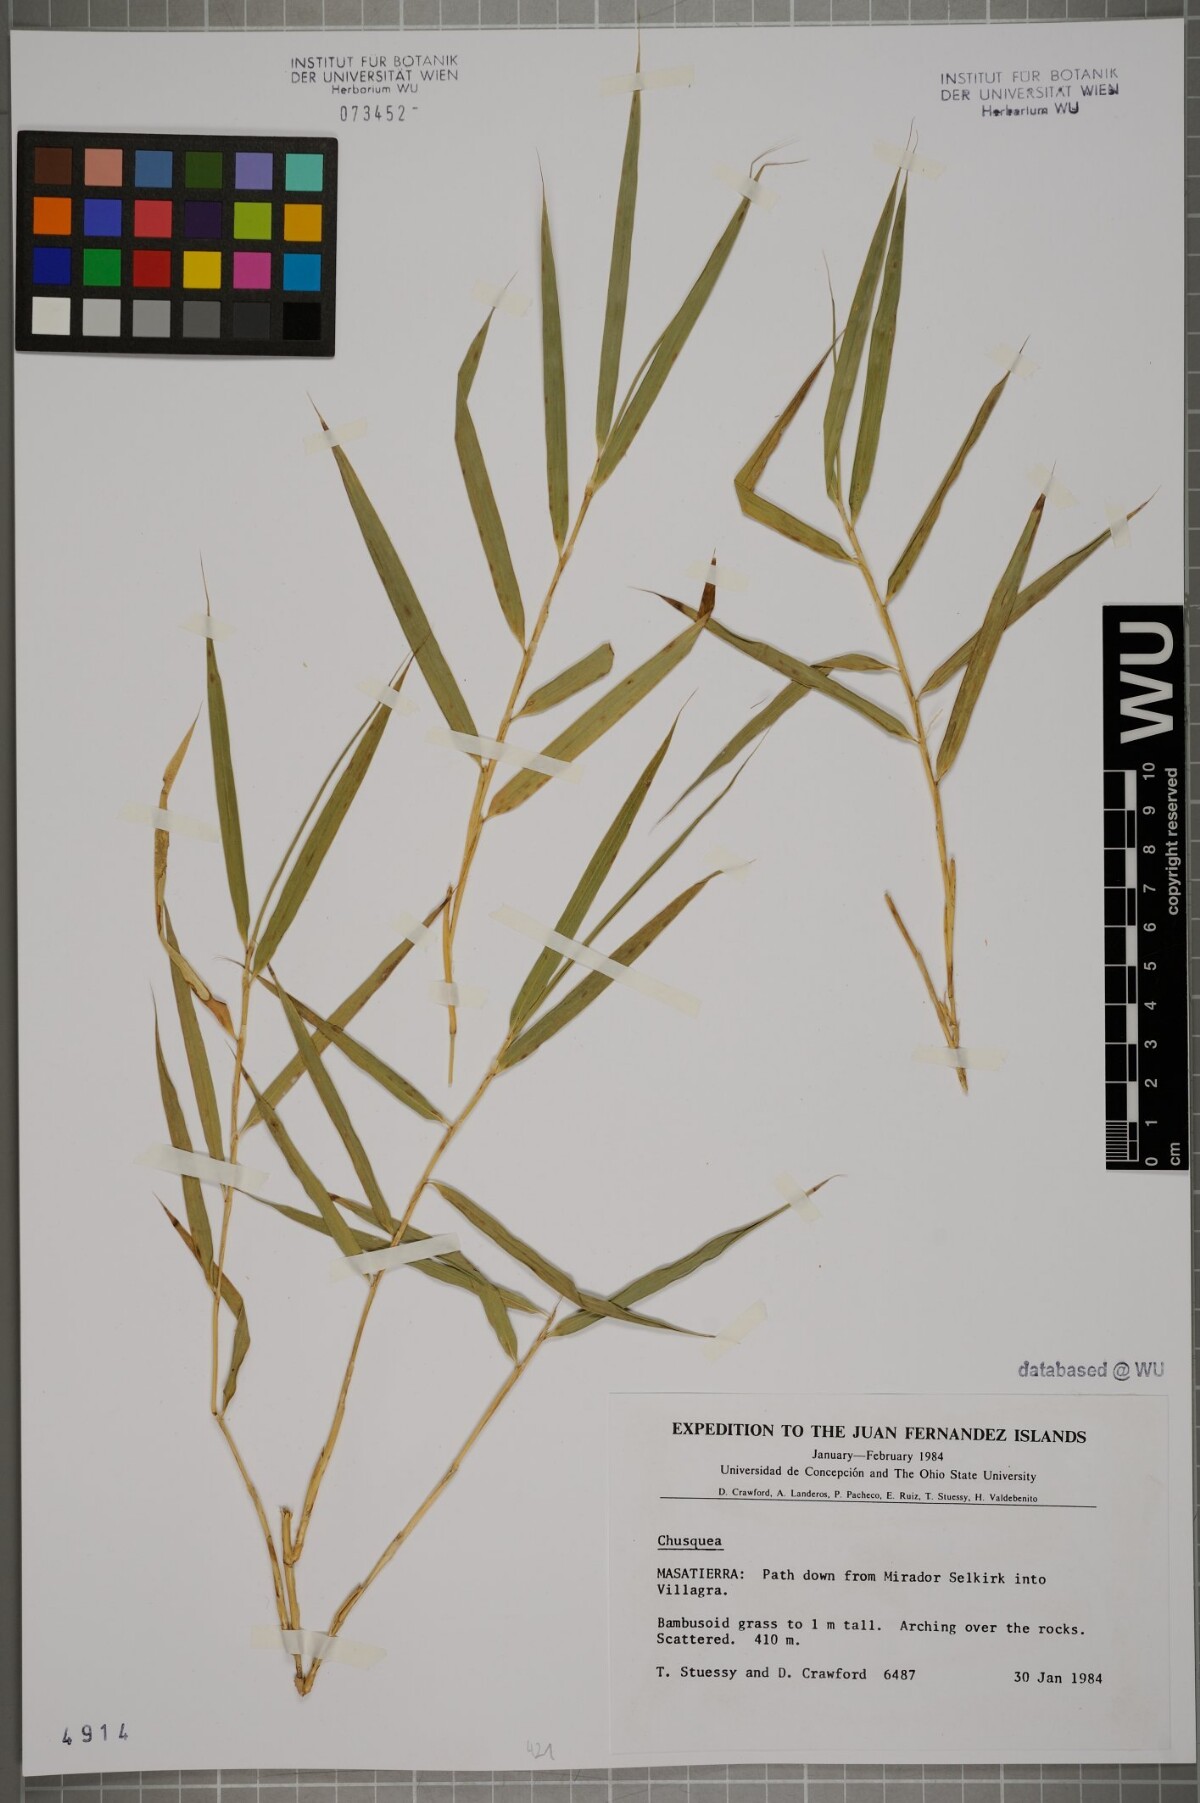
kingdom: Plantae
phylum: Tracheophyta
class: Liliopsida
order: Poales
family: Poaceae
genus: Chusquea
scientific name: Chusquea
